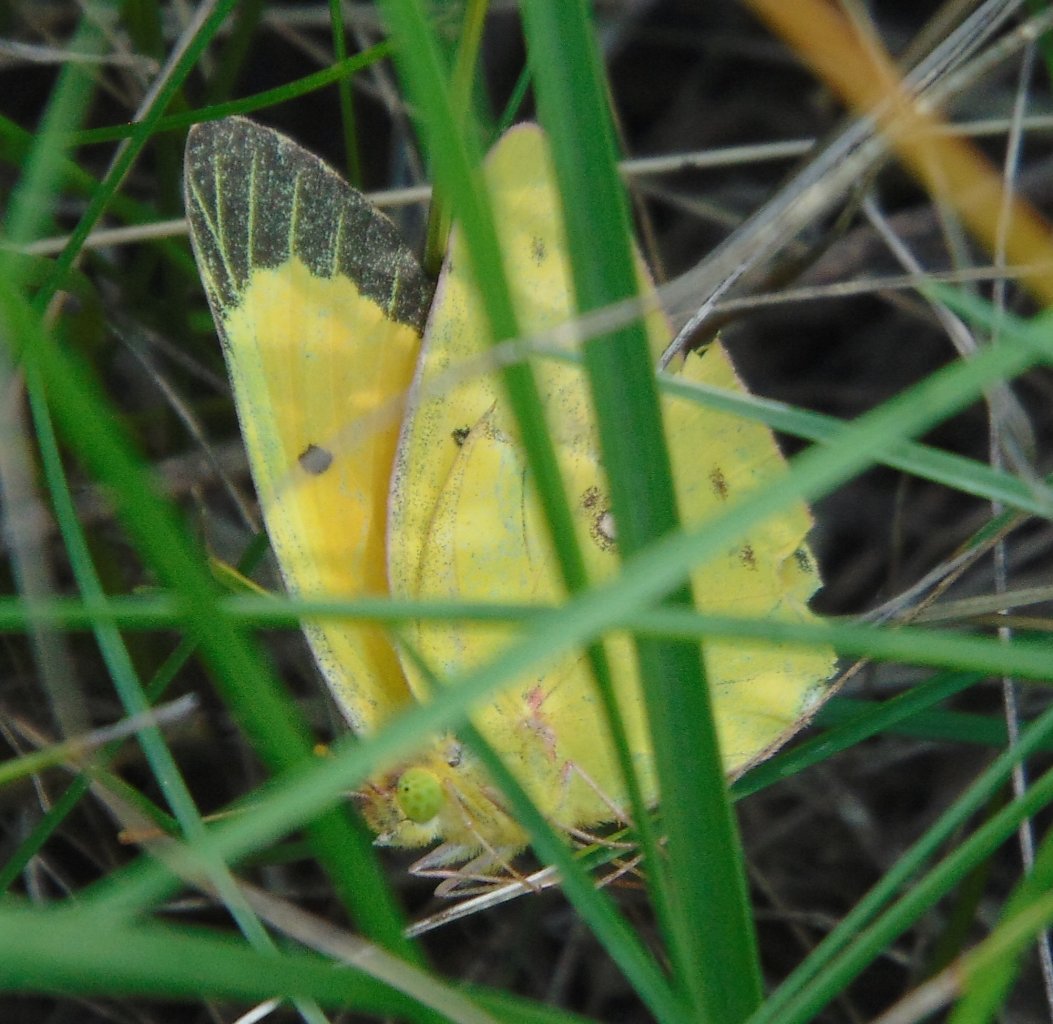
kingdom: Animalia
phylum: Arthropoda
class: Insecta
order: Lepidoptera
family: Pieridae
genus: Colias
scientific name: Colias eurytheme
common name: Orange Sulphur
